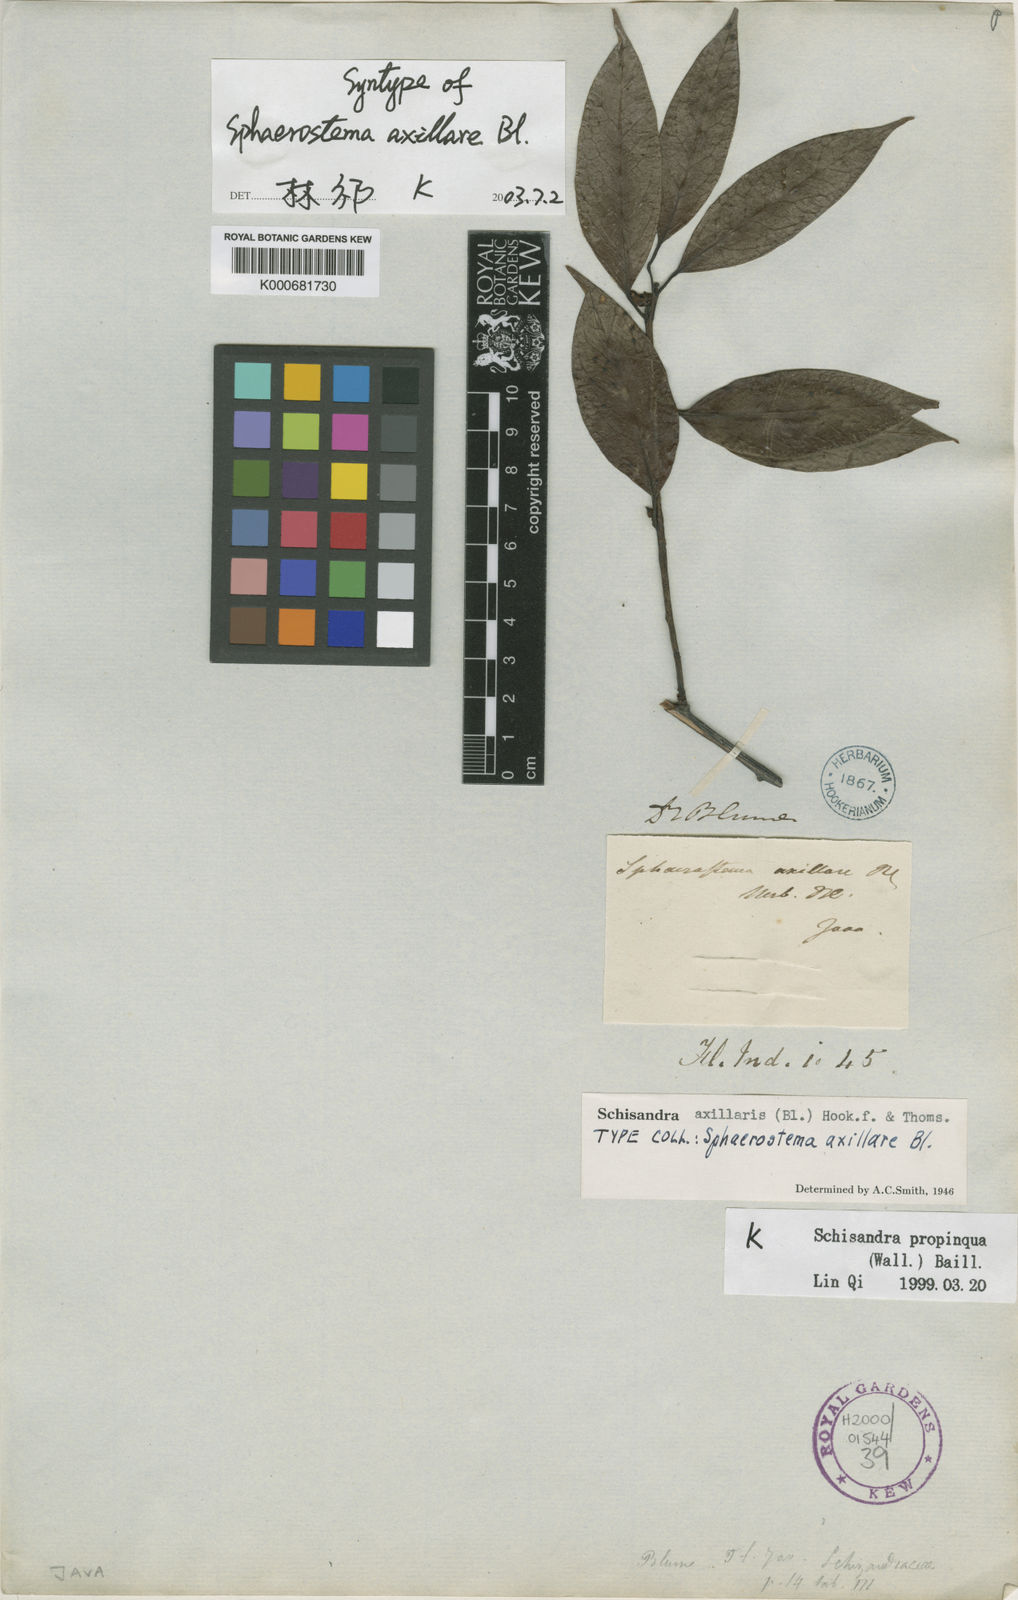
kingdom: Plantae
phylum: Tracheophyta
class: Magnoliopsida
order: Austrobaileyales
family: Schisandraceae
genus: Schisandra
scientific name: Schisandra propinqua
